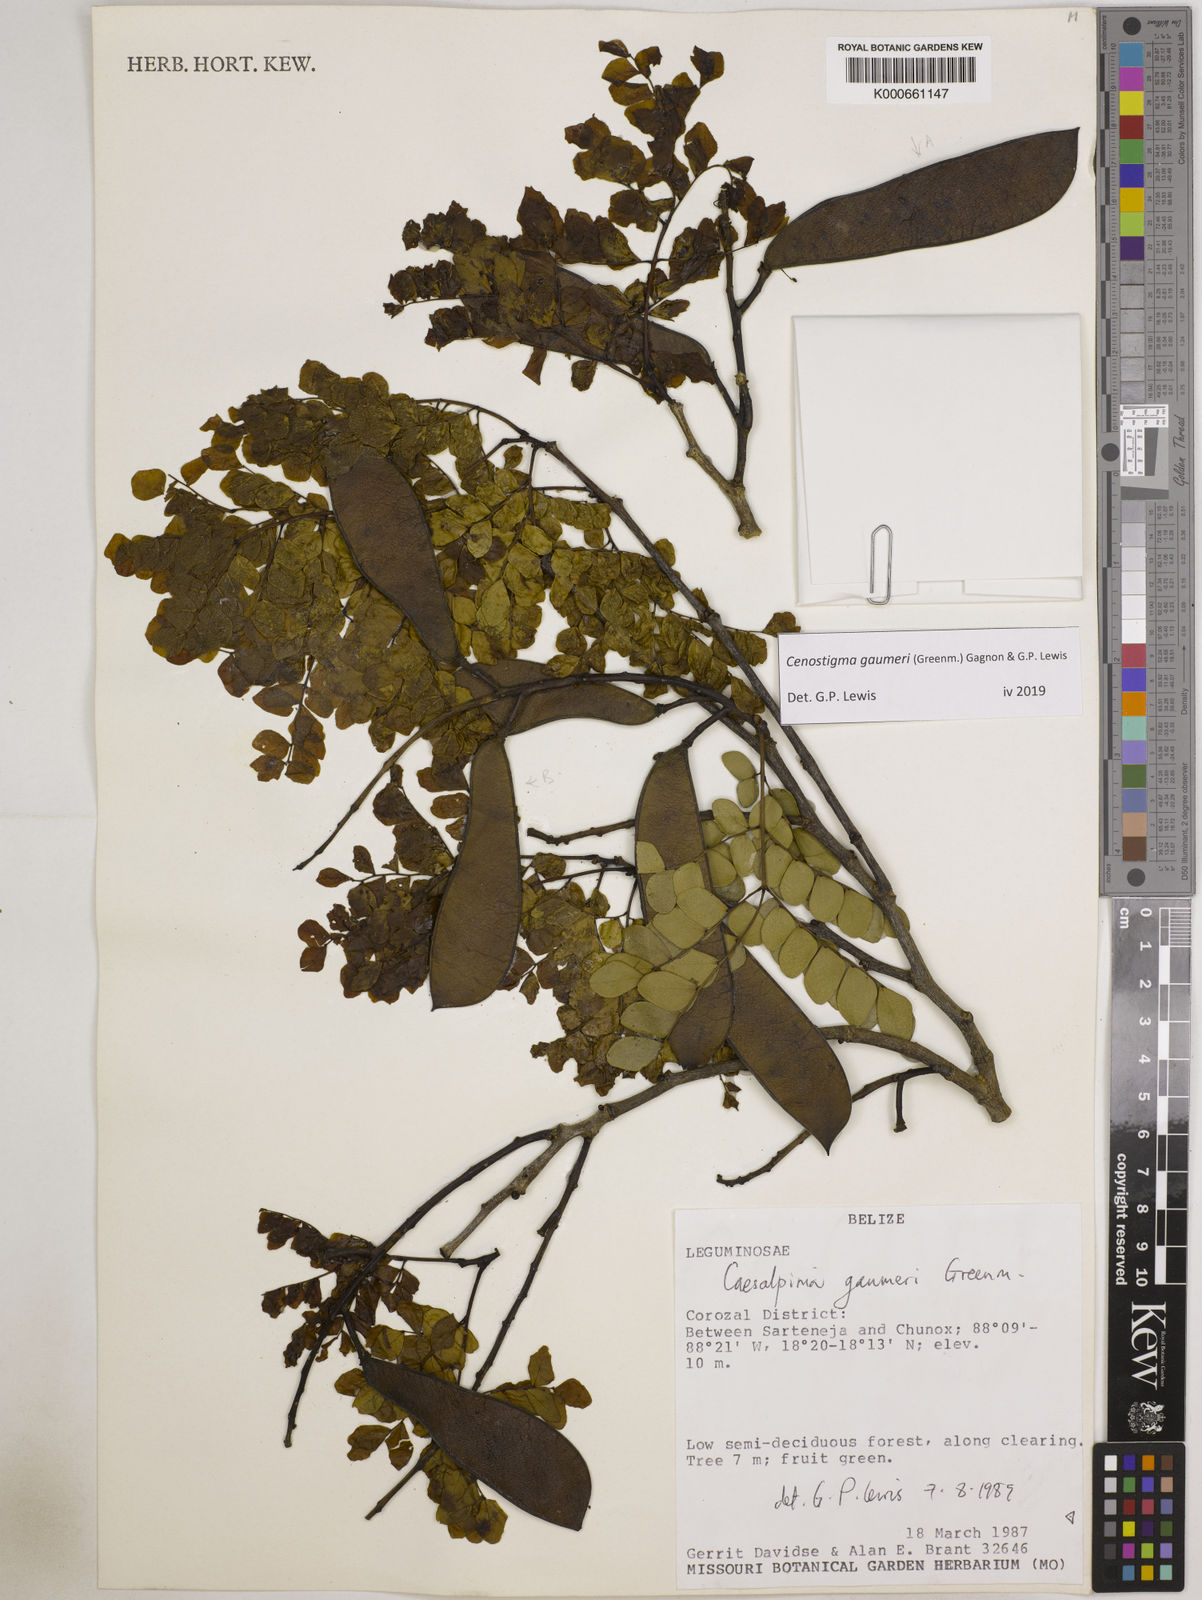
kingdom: Plantae
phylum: Tracheophyta
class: Magnoliopsida
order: Fabales
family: Fabaceae
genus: Cenostigma
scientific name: Cenostigma gaumeri
